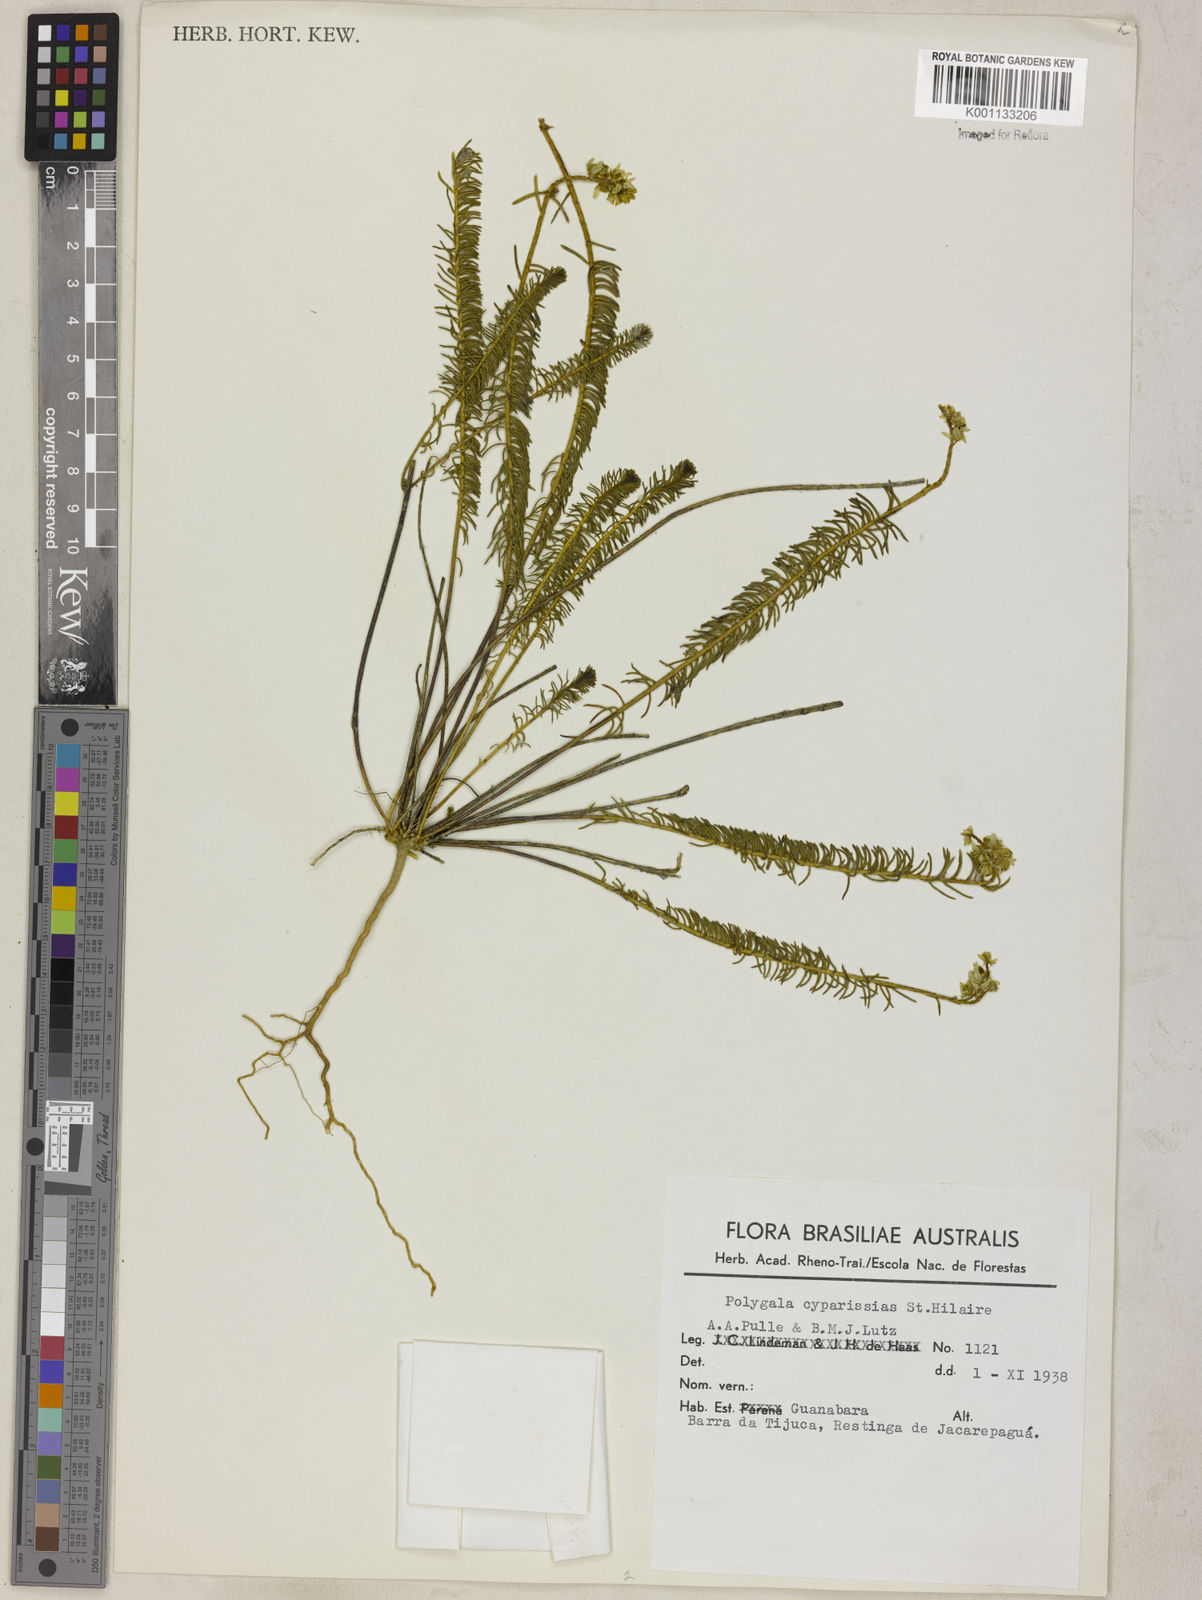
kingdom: Plantae
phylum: Tracheophyta
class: Magnoliopsida
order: Fabales
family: Polygalaceae
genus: Polygala
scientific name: Polygala cyparissias
